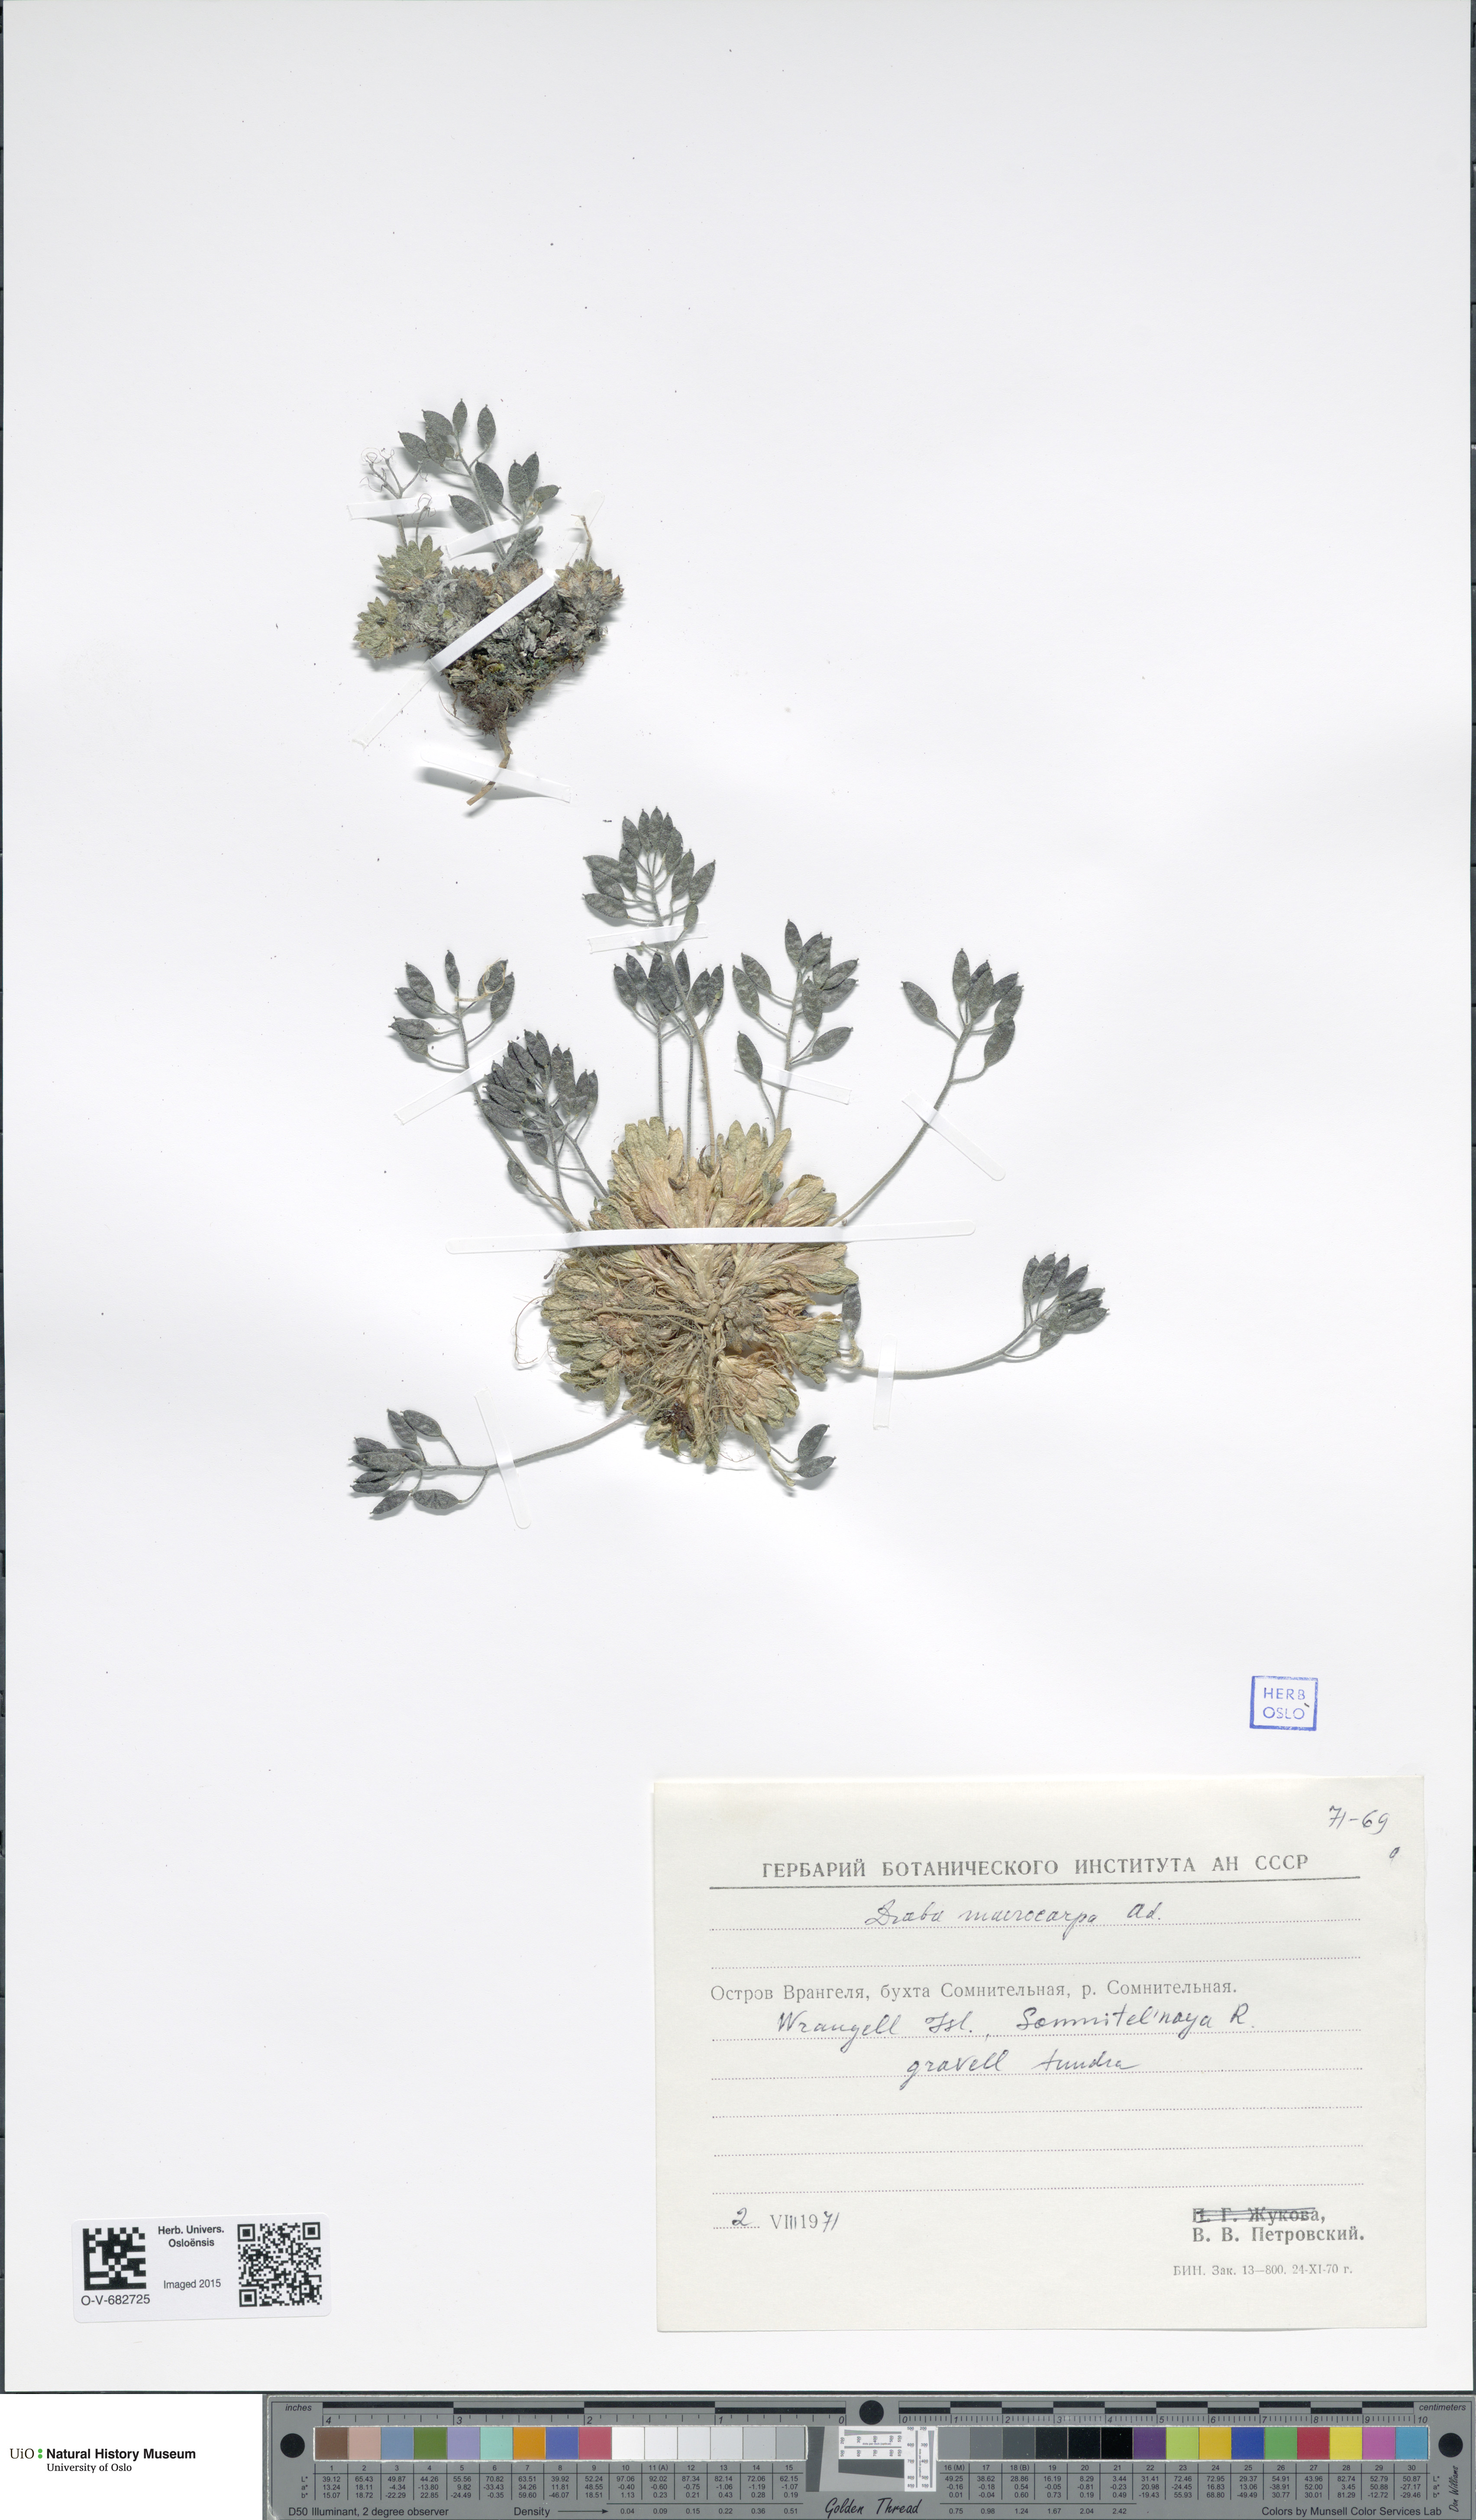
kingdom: Plantae
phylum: Tracheophyta
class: Magnoliopsida
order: Brassicales
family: Brassicaceae
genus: Draba
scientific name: Draba corymbosa
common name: Cushion whitlow-grass
